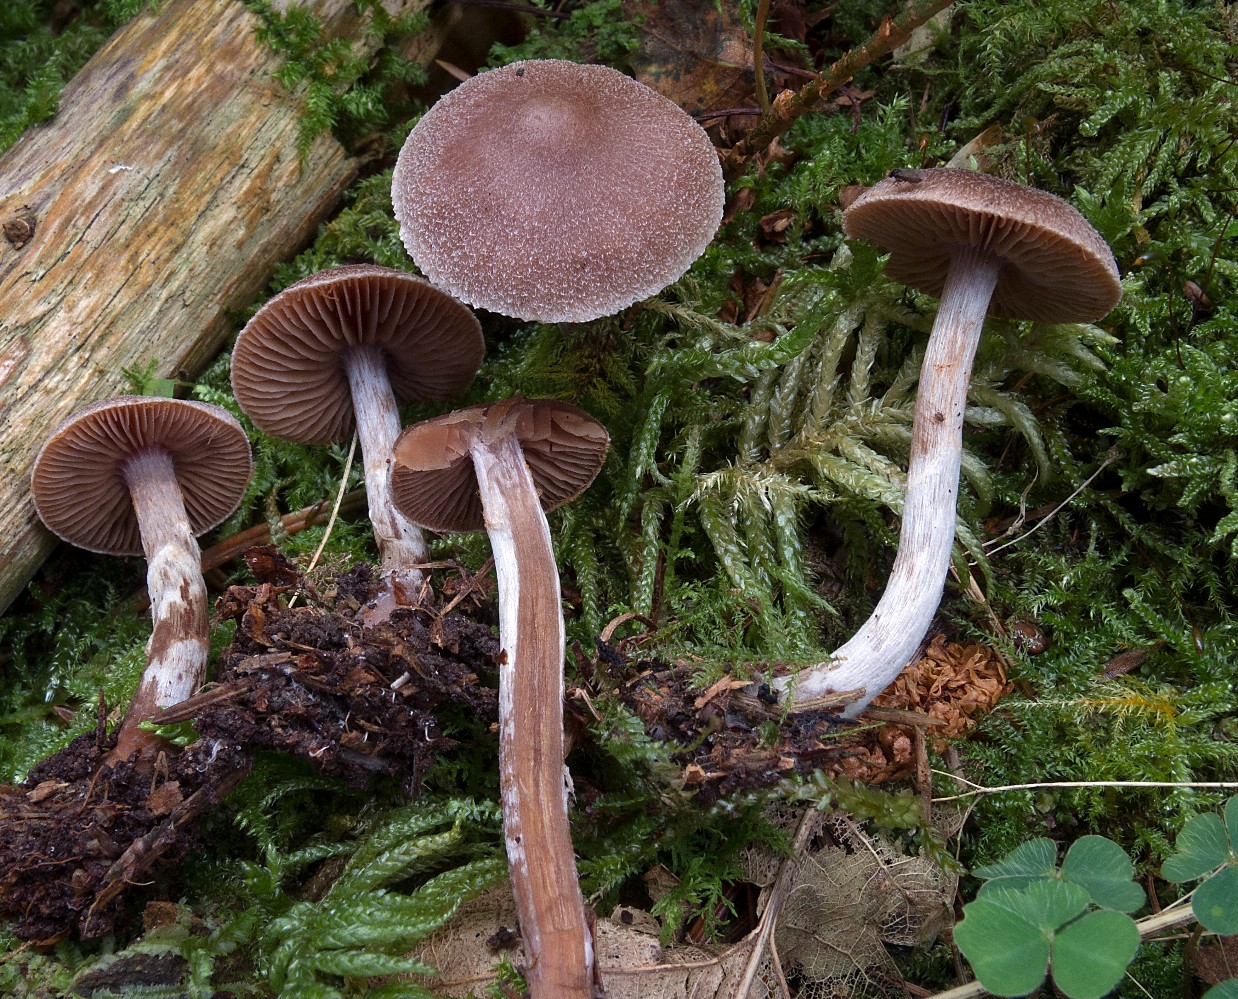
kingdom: Fungi
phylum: Basidiomycota
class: Agaricomycetes
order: Agaricales
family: Cortinariaceae
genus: Cortinarius
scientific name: Cortinarius comptulus
